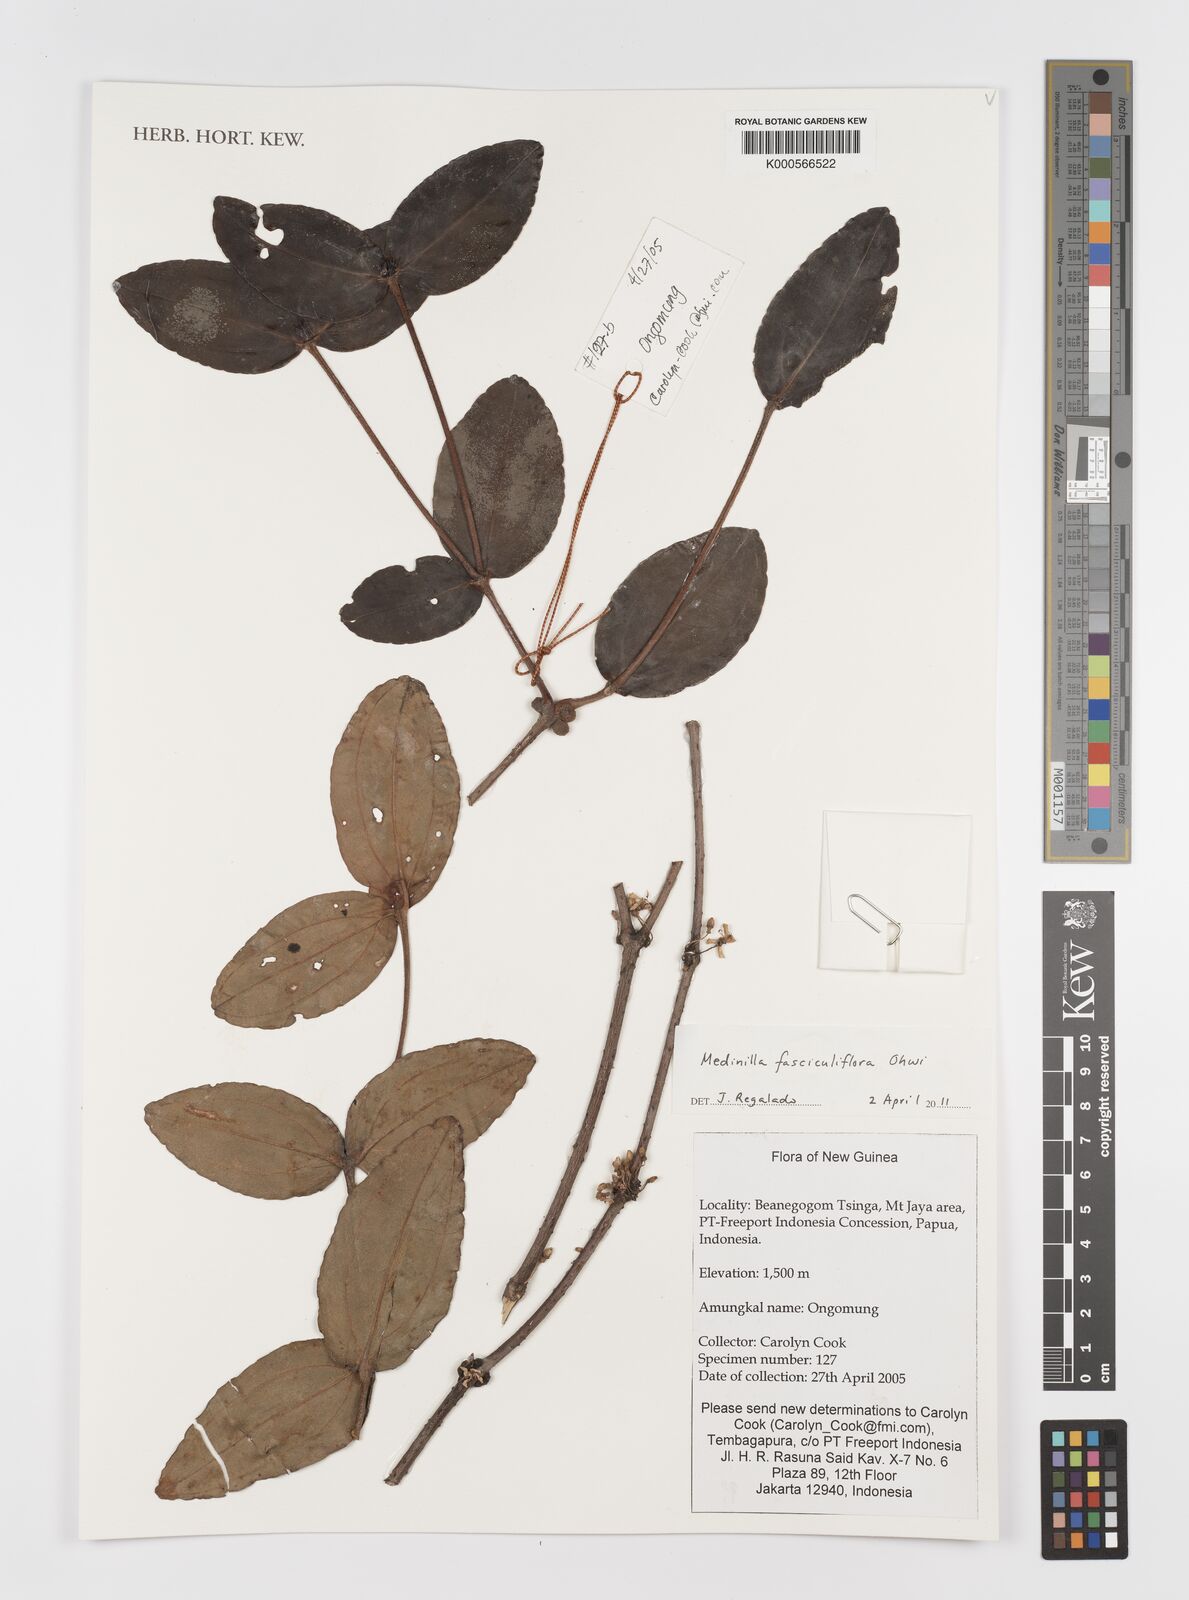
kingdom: Plantae
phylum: Tracheophyta
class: Magnoliopsida
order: Myrtales
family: Melastomataceae
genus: Miconia
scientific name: Miconia
